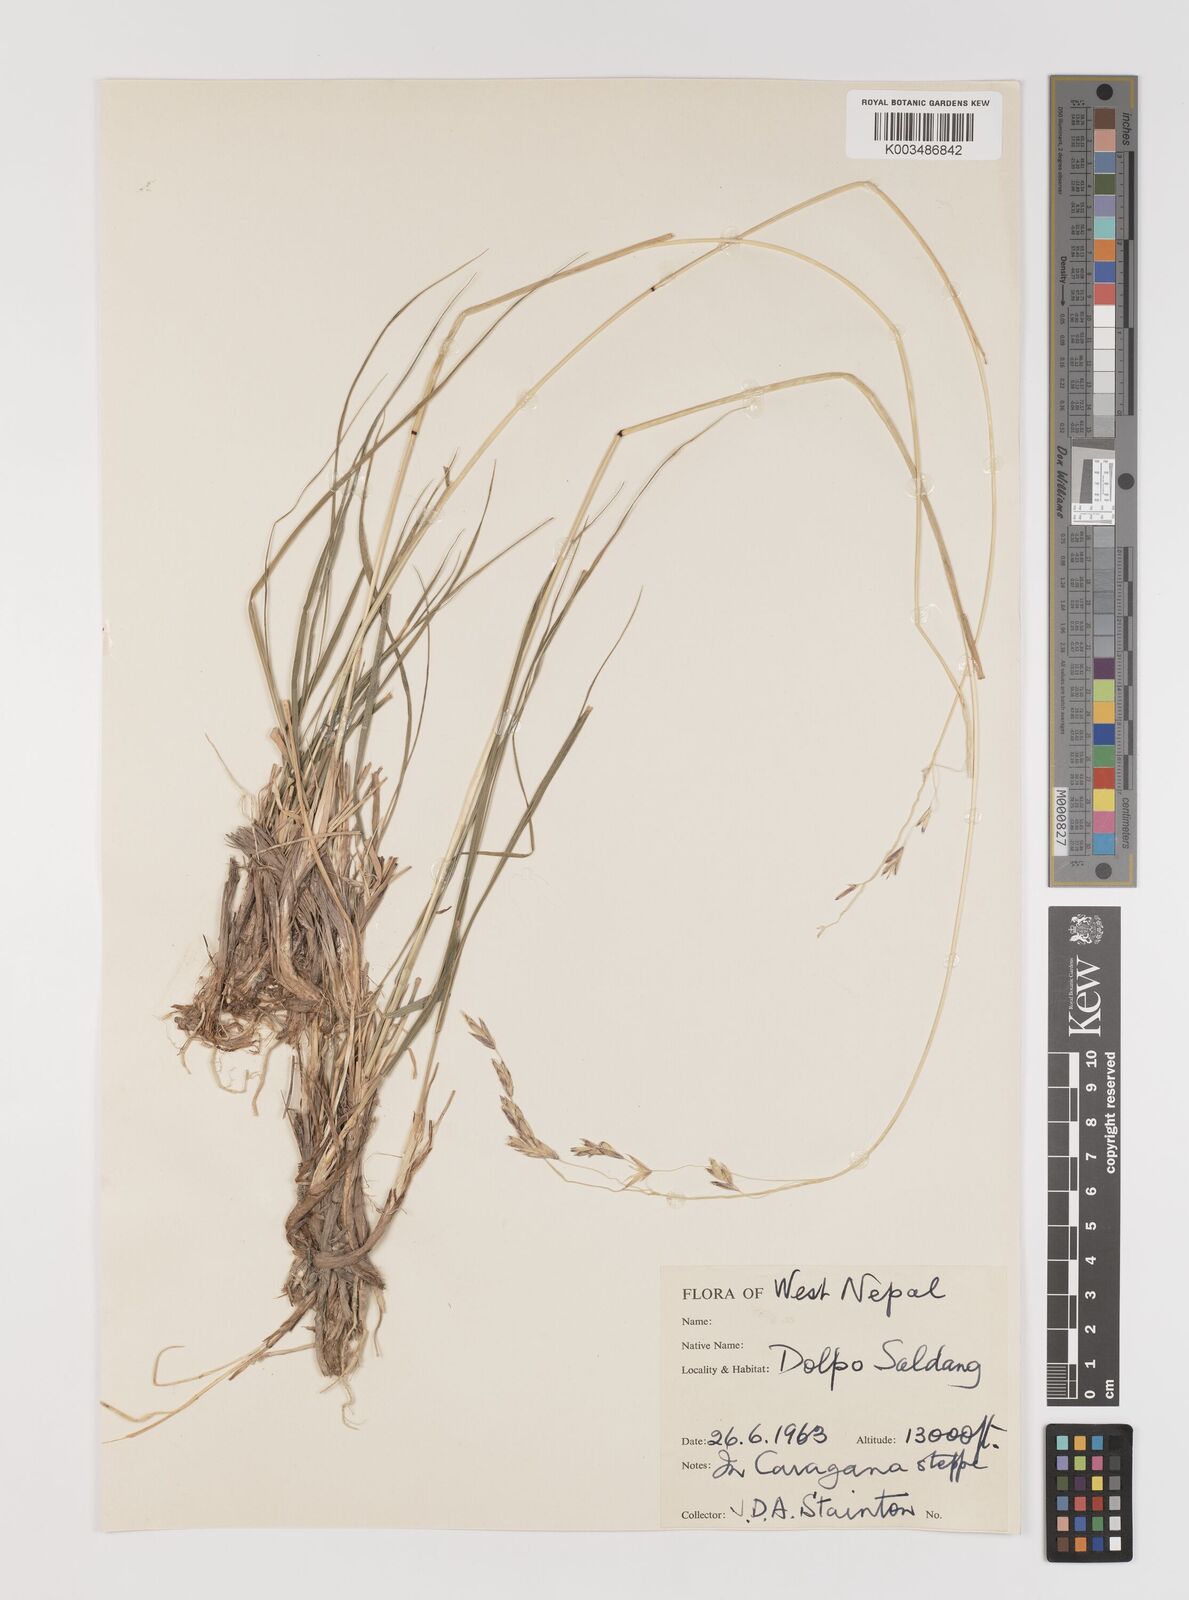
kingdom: Plantae
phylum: Tracheophyta
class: Liliopsida
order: Poales
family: Poaceae
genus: Bromus
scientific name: Bromus
